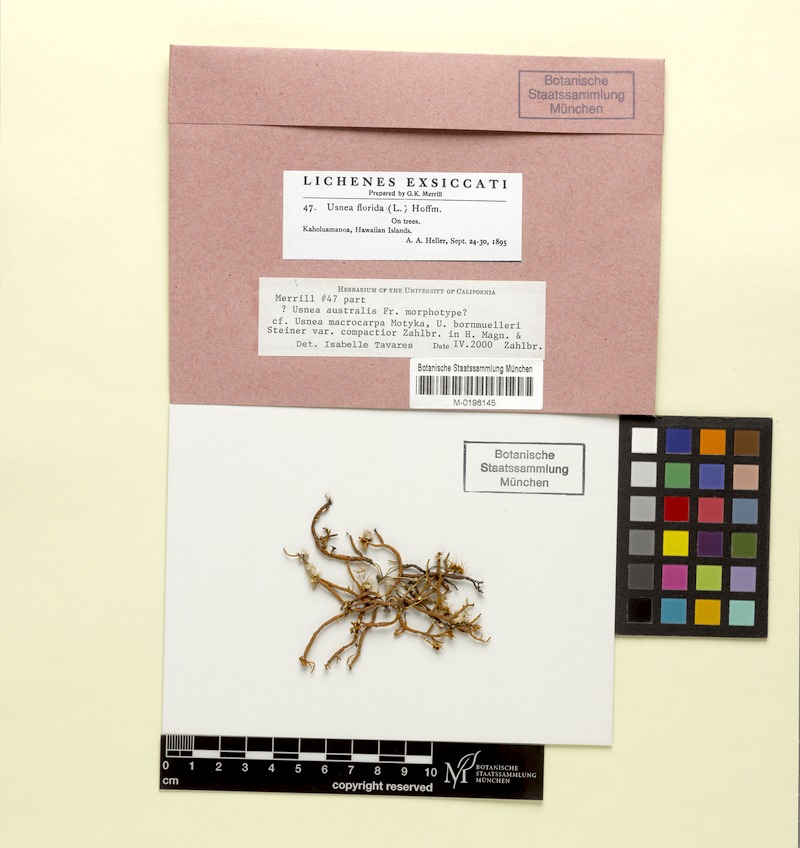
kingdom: Fungi
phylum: Ascomycota
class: Lecanoromycetes
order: Lecanorales
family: Parmeliaceae
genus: Usnea
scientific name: Usnea florida
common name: Witches' whiskers lichen
